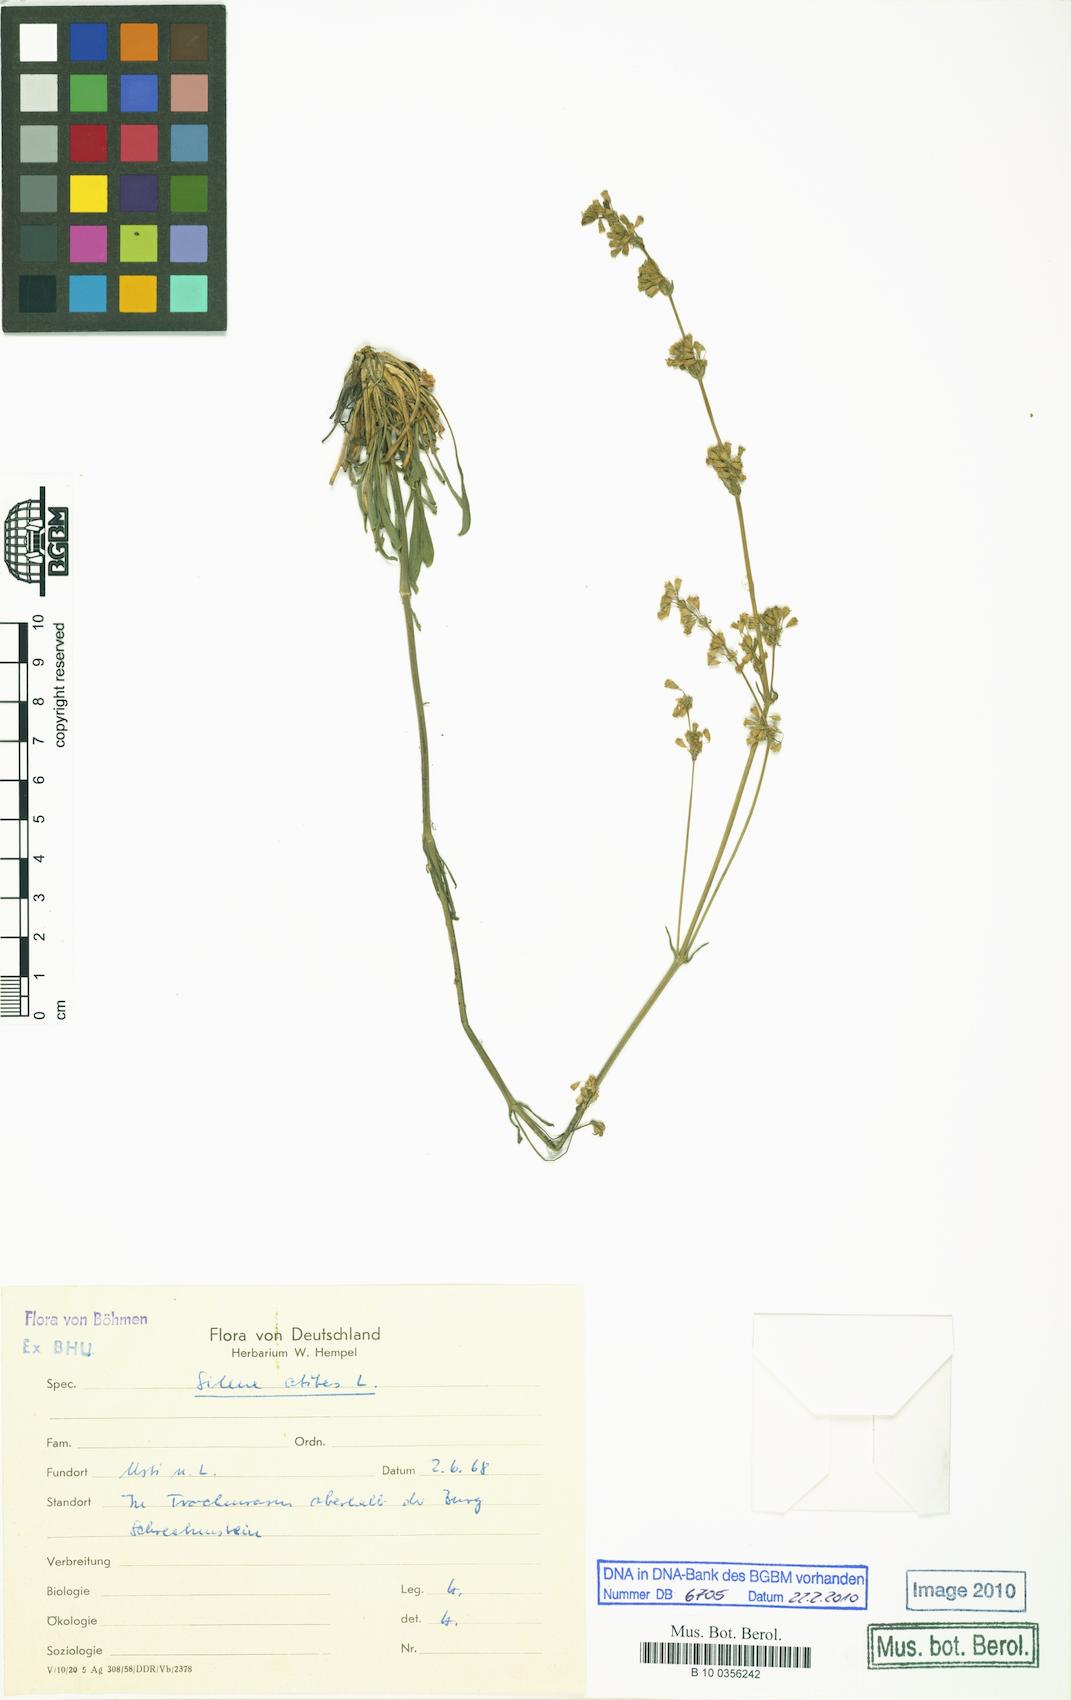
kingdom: Plantae
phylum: Tracheophyta
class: Magnoliopsida
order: Caryophyllales
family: Caryophyllaceae
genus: Silene
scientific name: Silene otites
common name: Spanish catchfly
